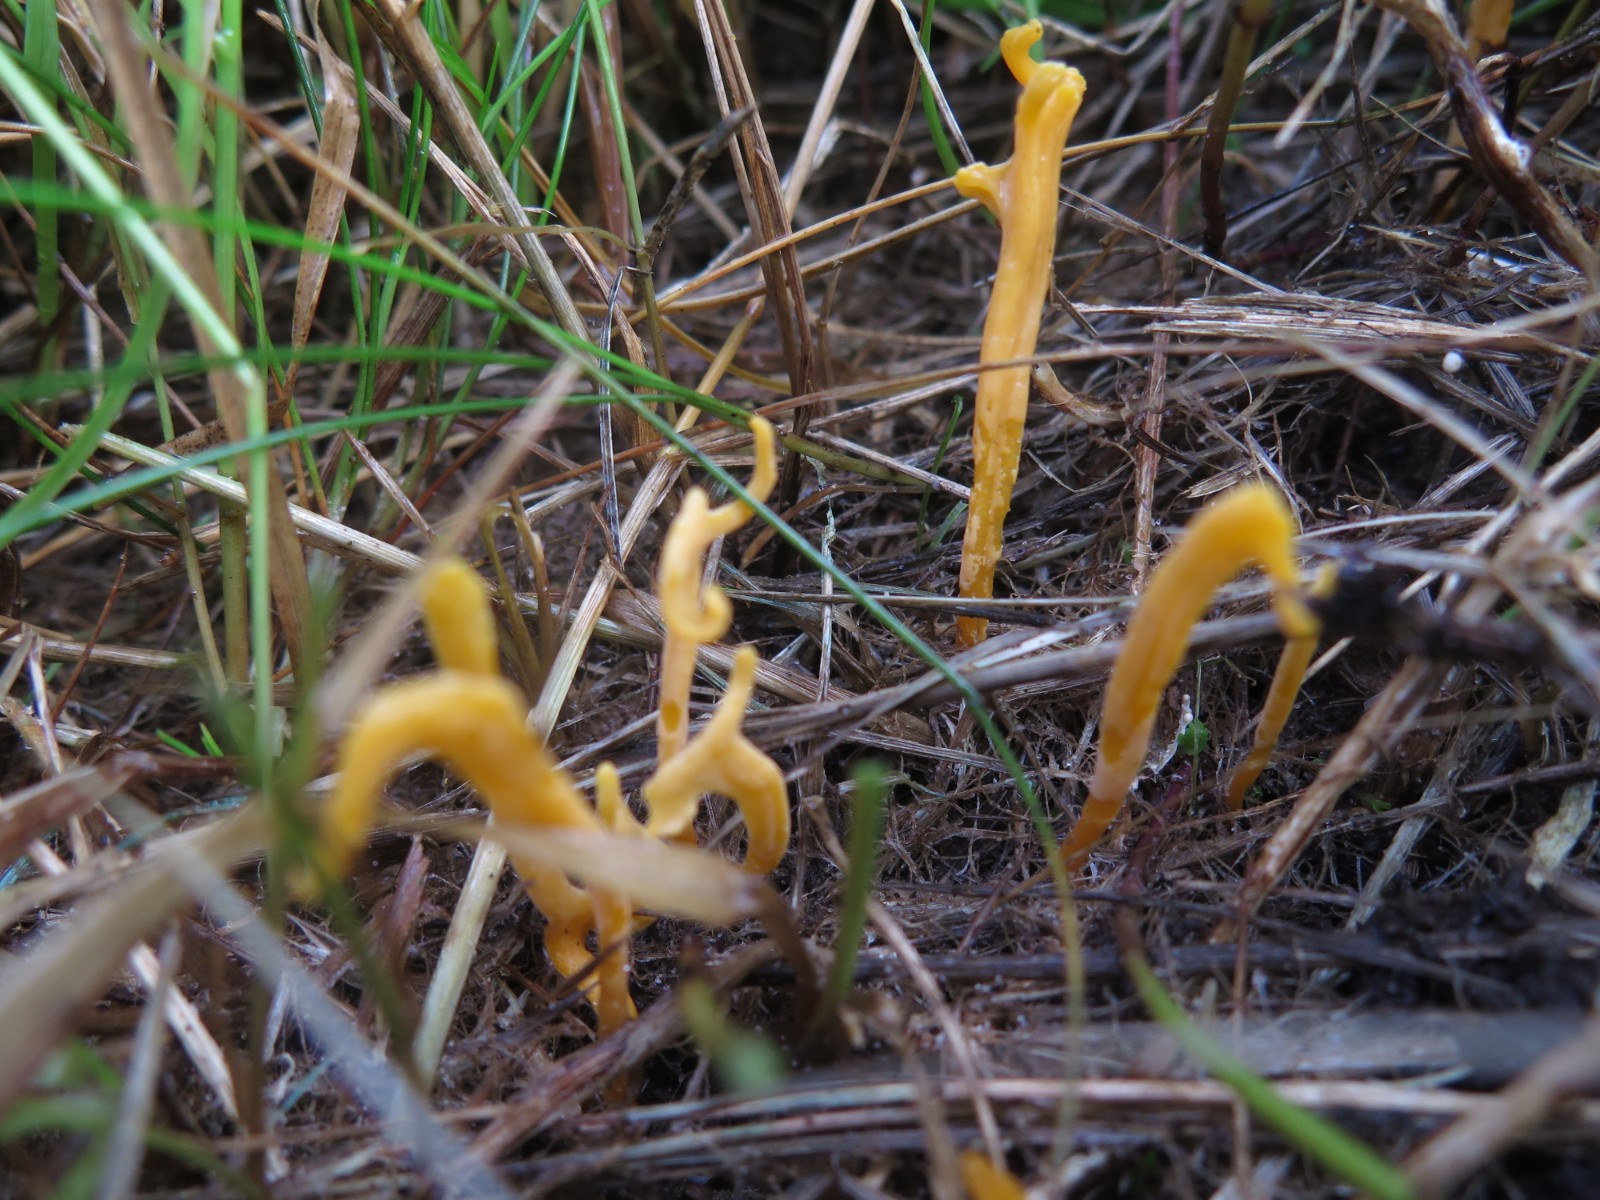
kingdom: Fungi
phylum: Basidiomycota
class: Agaricomycetes
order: Agaricales
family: Clavariaceae
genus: Clavulinopsis
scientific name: Clavulinopsis luteoalba
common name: abrikos-køllesvamp
